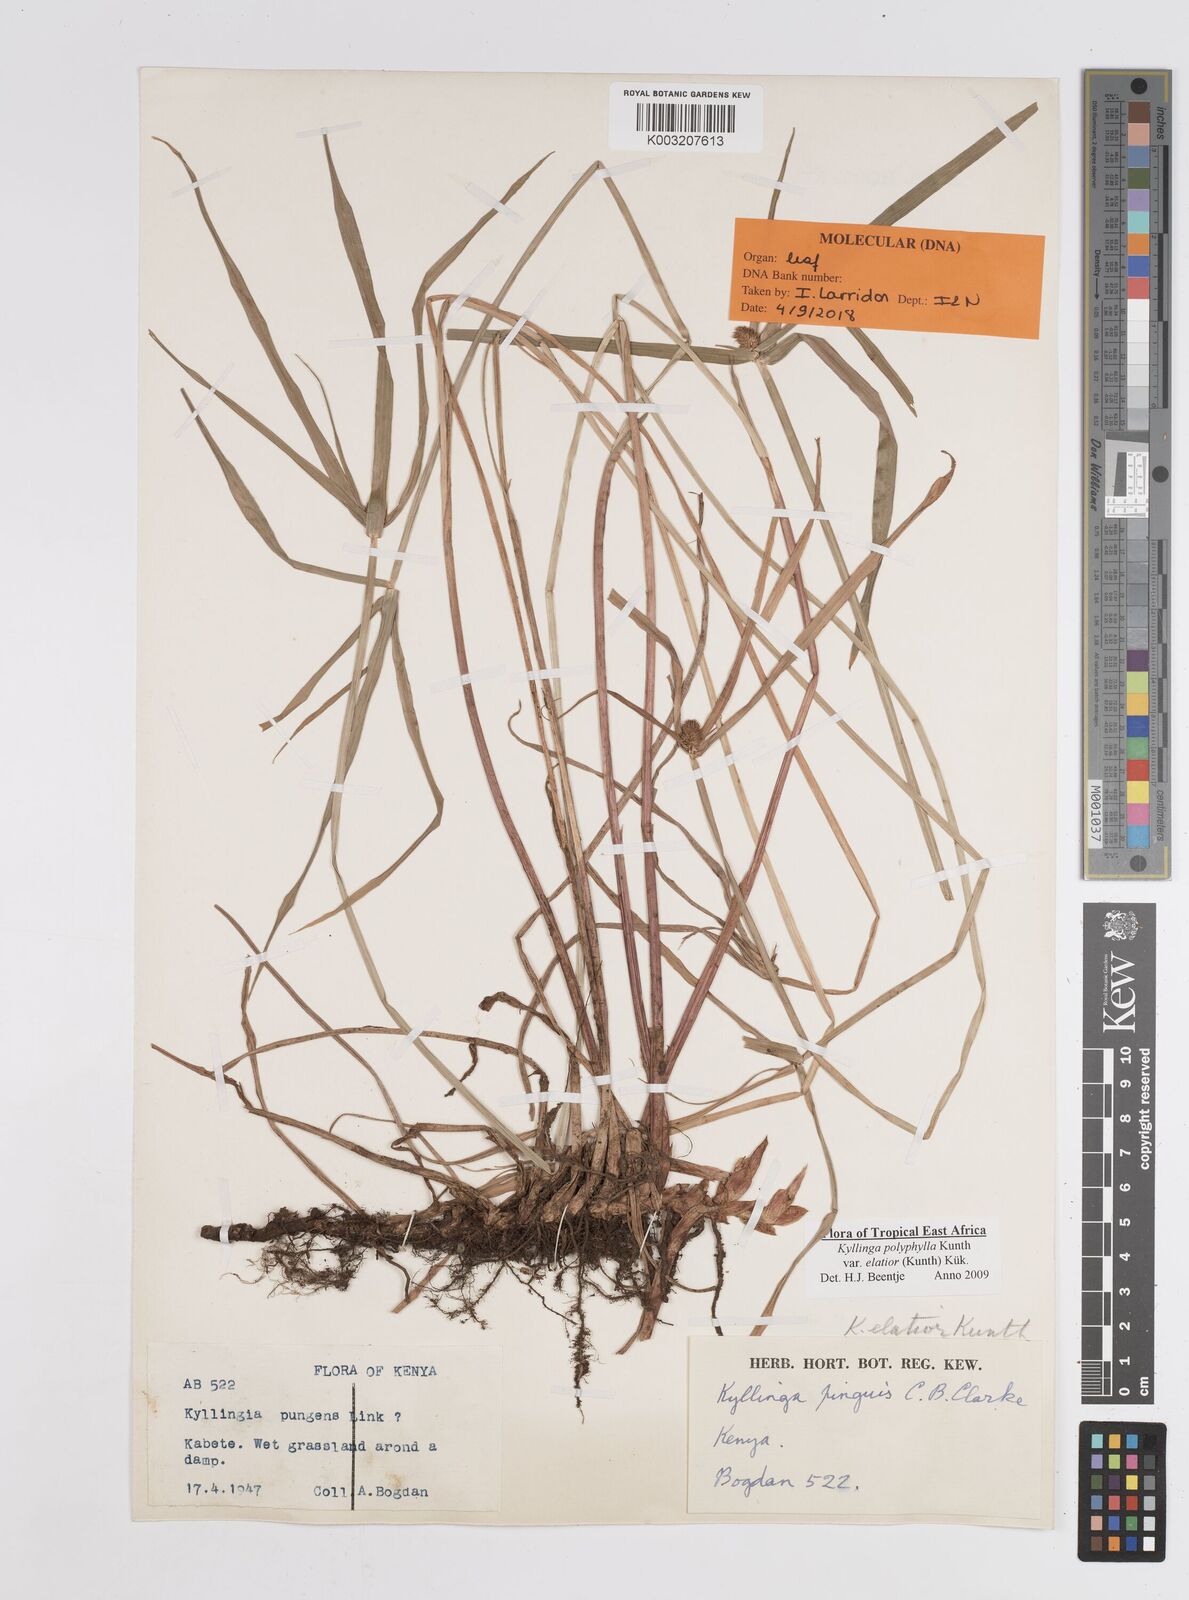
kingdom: Plantae
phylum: Tracheophyta
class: Liliopsida
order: Poales
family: Cyperaceae
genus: Cyperus
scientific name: Cyperus
